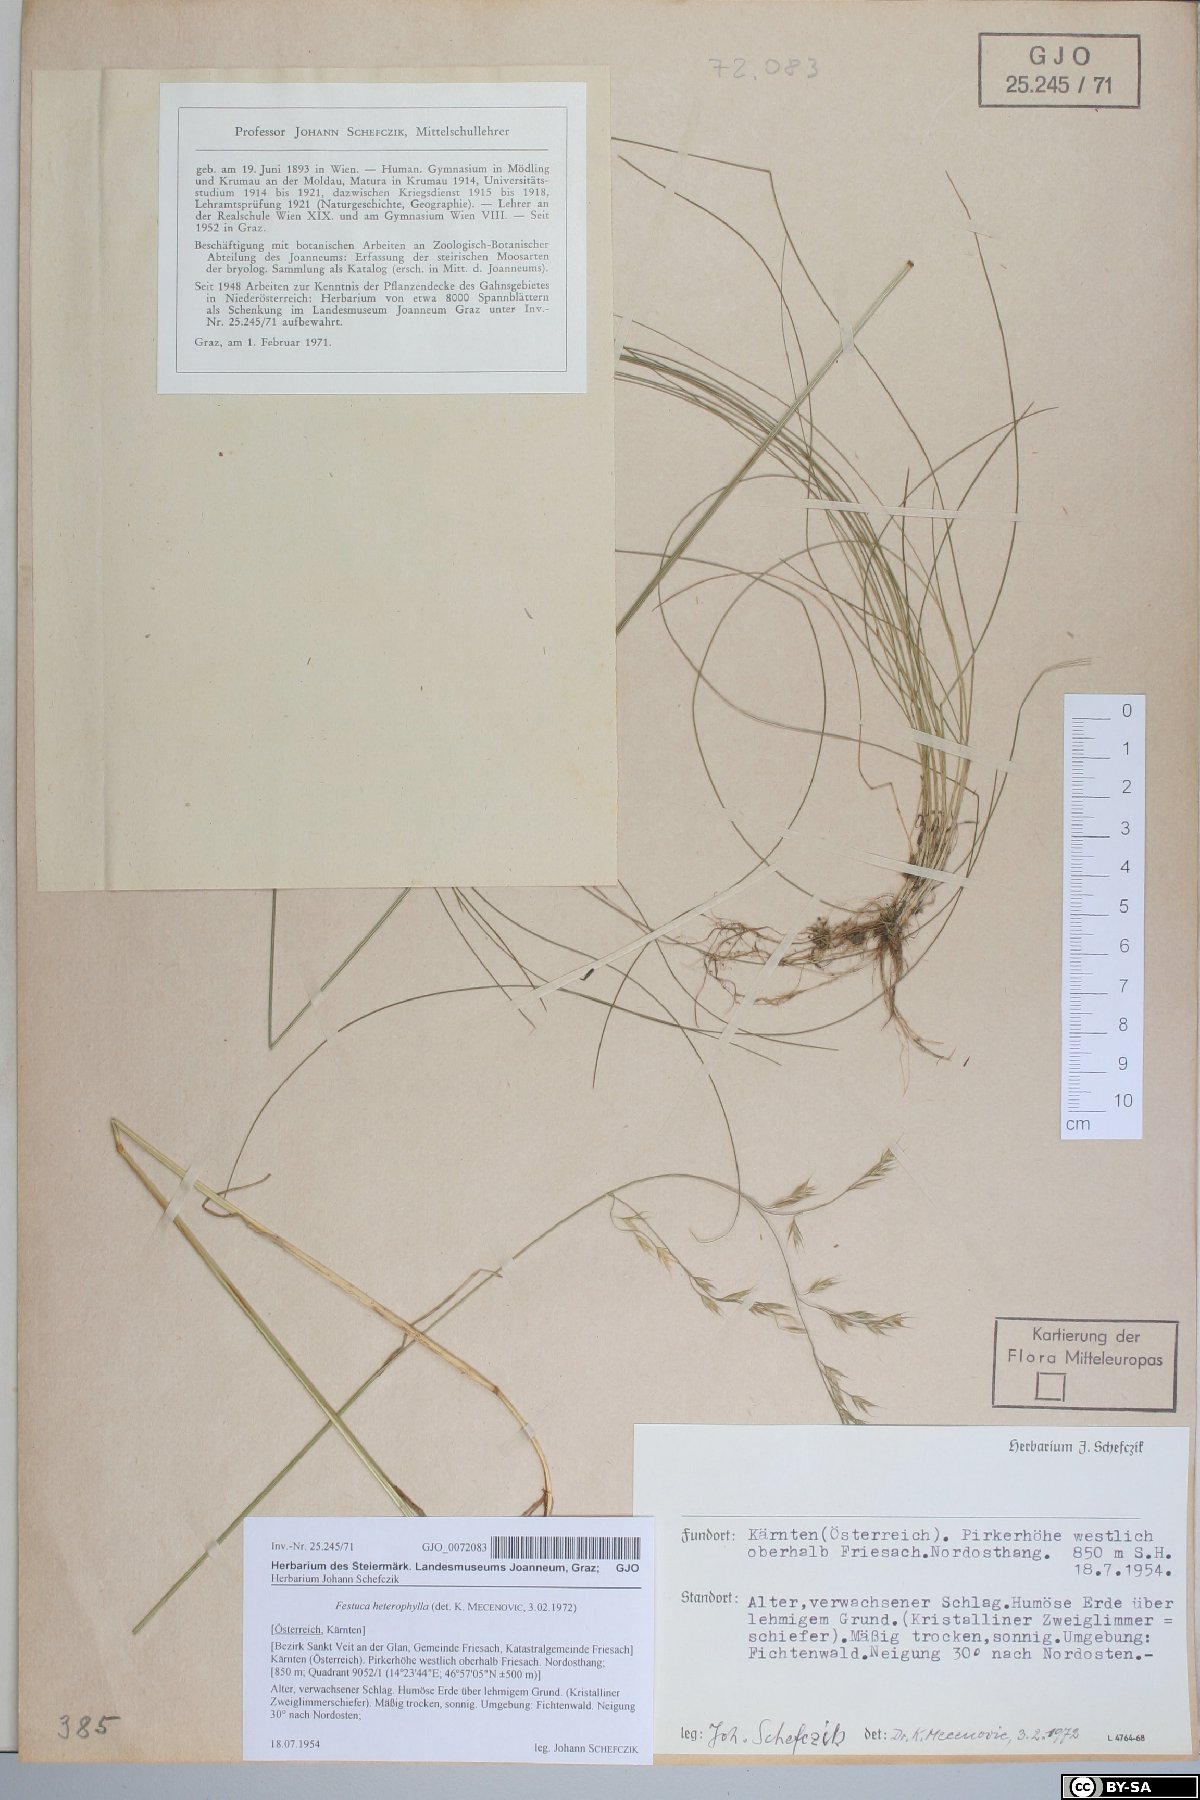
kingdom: Plantae
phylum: Tracheophyta
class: Liliopsida
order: Poales
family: Poaceae
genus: Festuca
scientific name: Festuca heterophylla
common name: Various-leaved fescue
